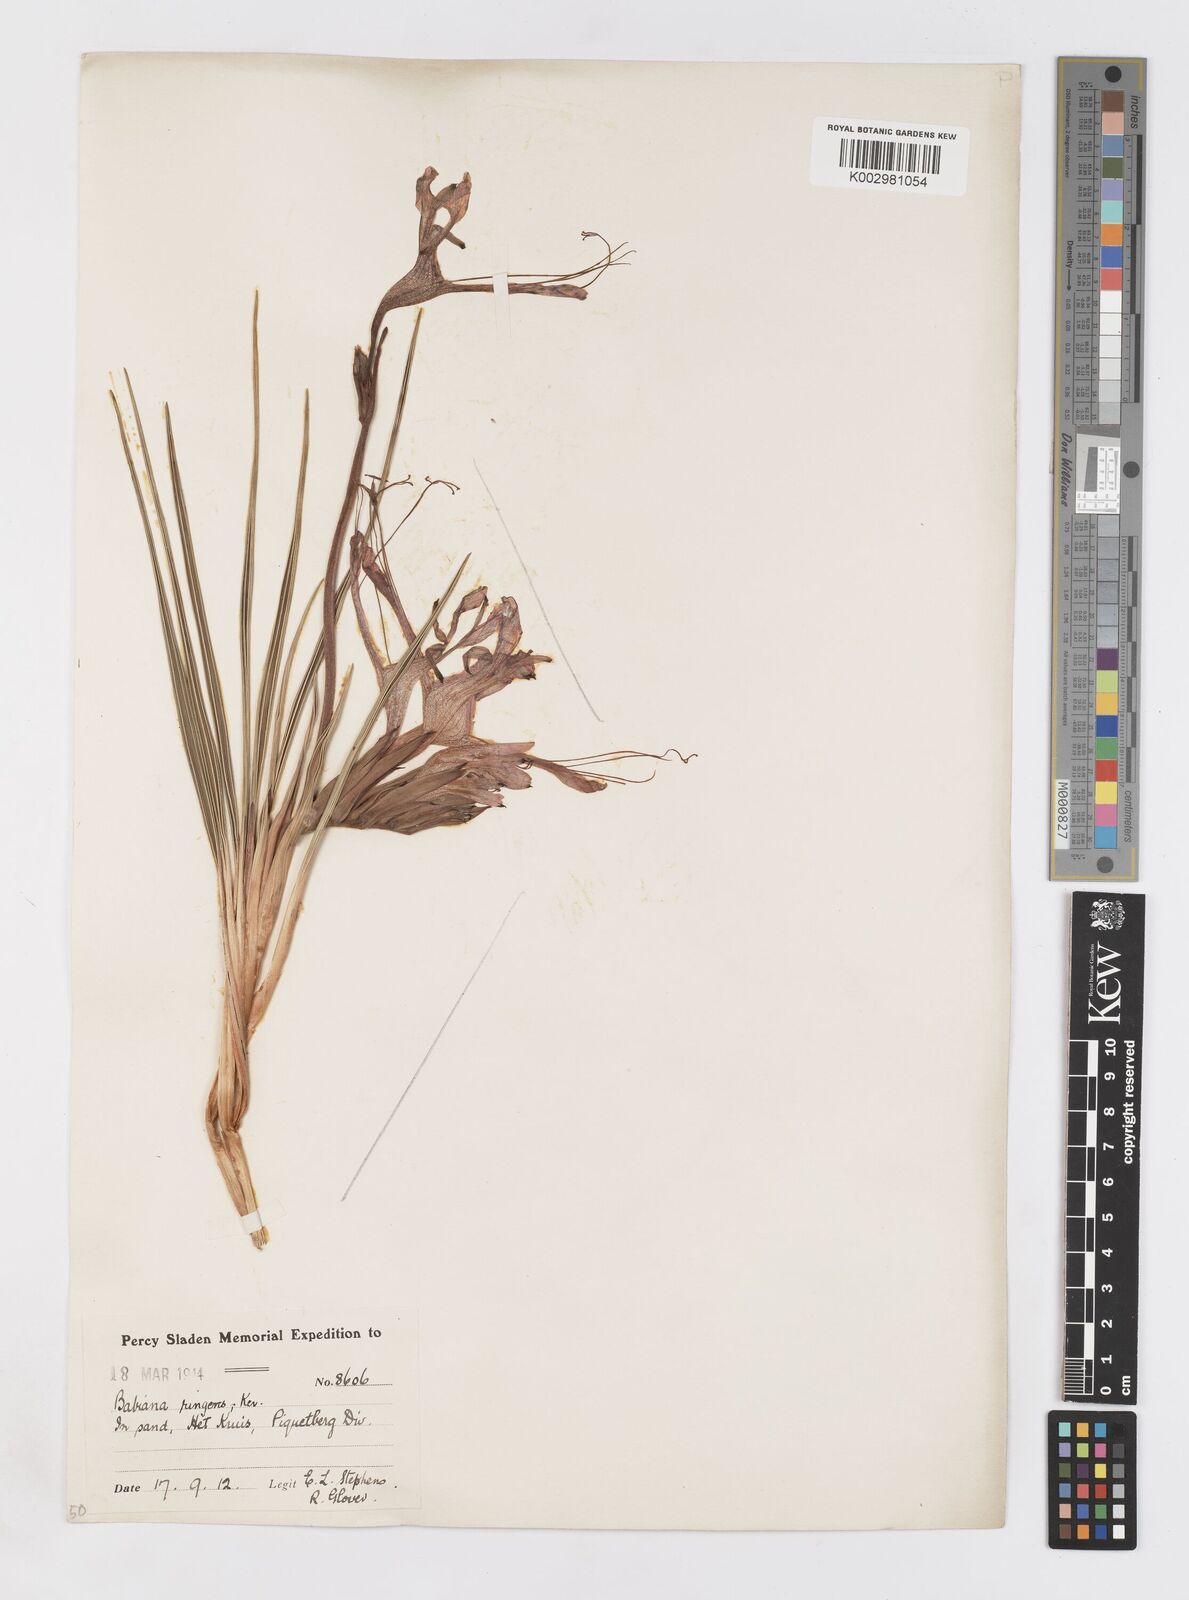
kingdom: Plantae
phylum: Tracheophyta
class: Liliopsida
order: Asparagales
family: Iridaceae
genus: Babiana
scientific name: Babiana ringens
